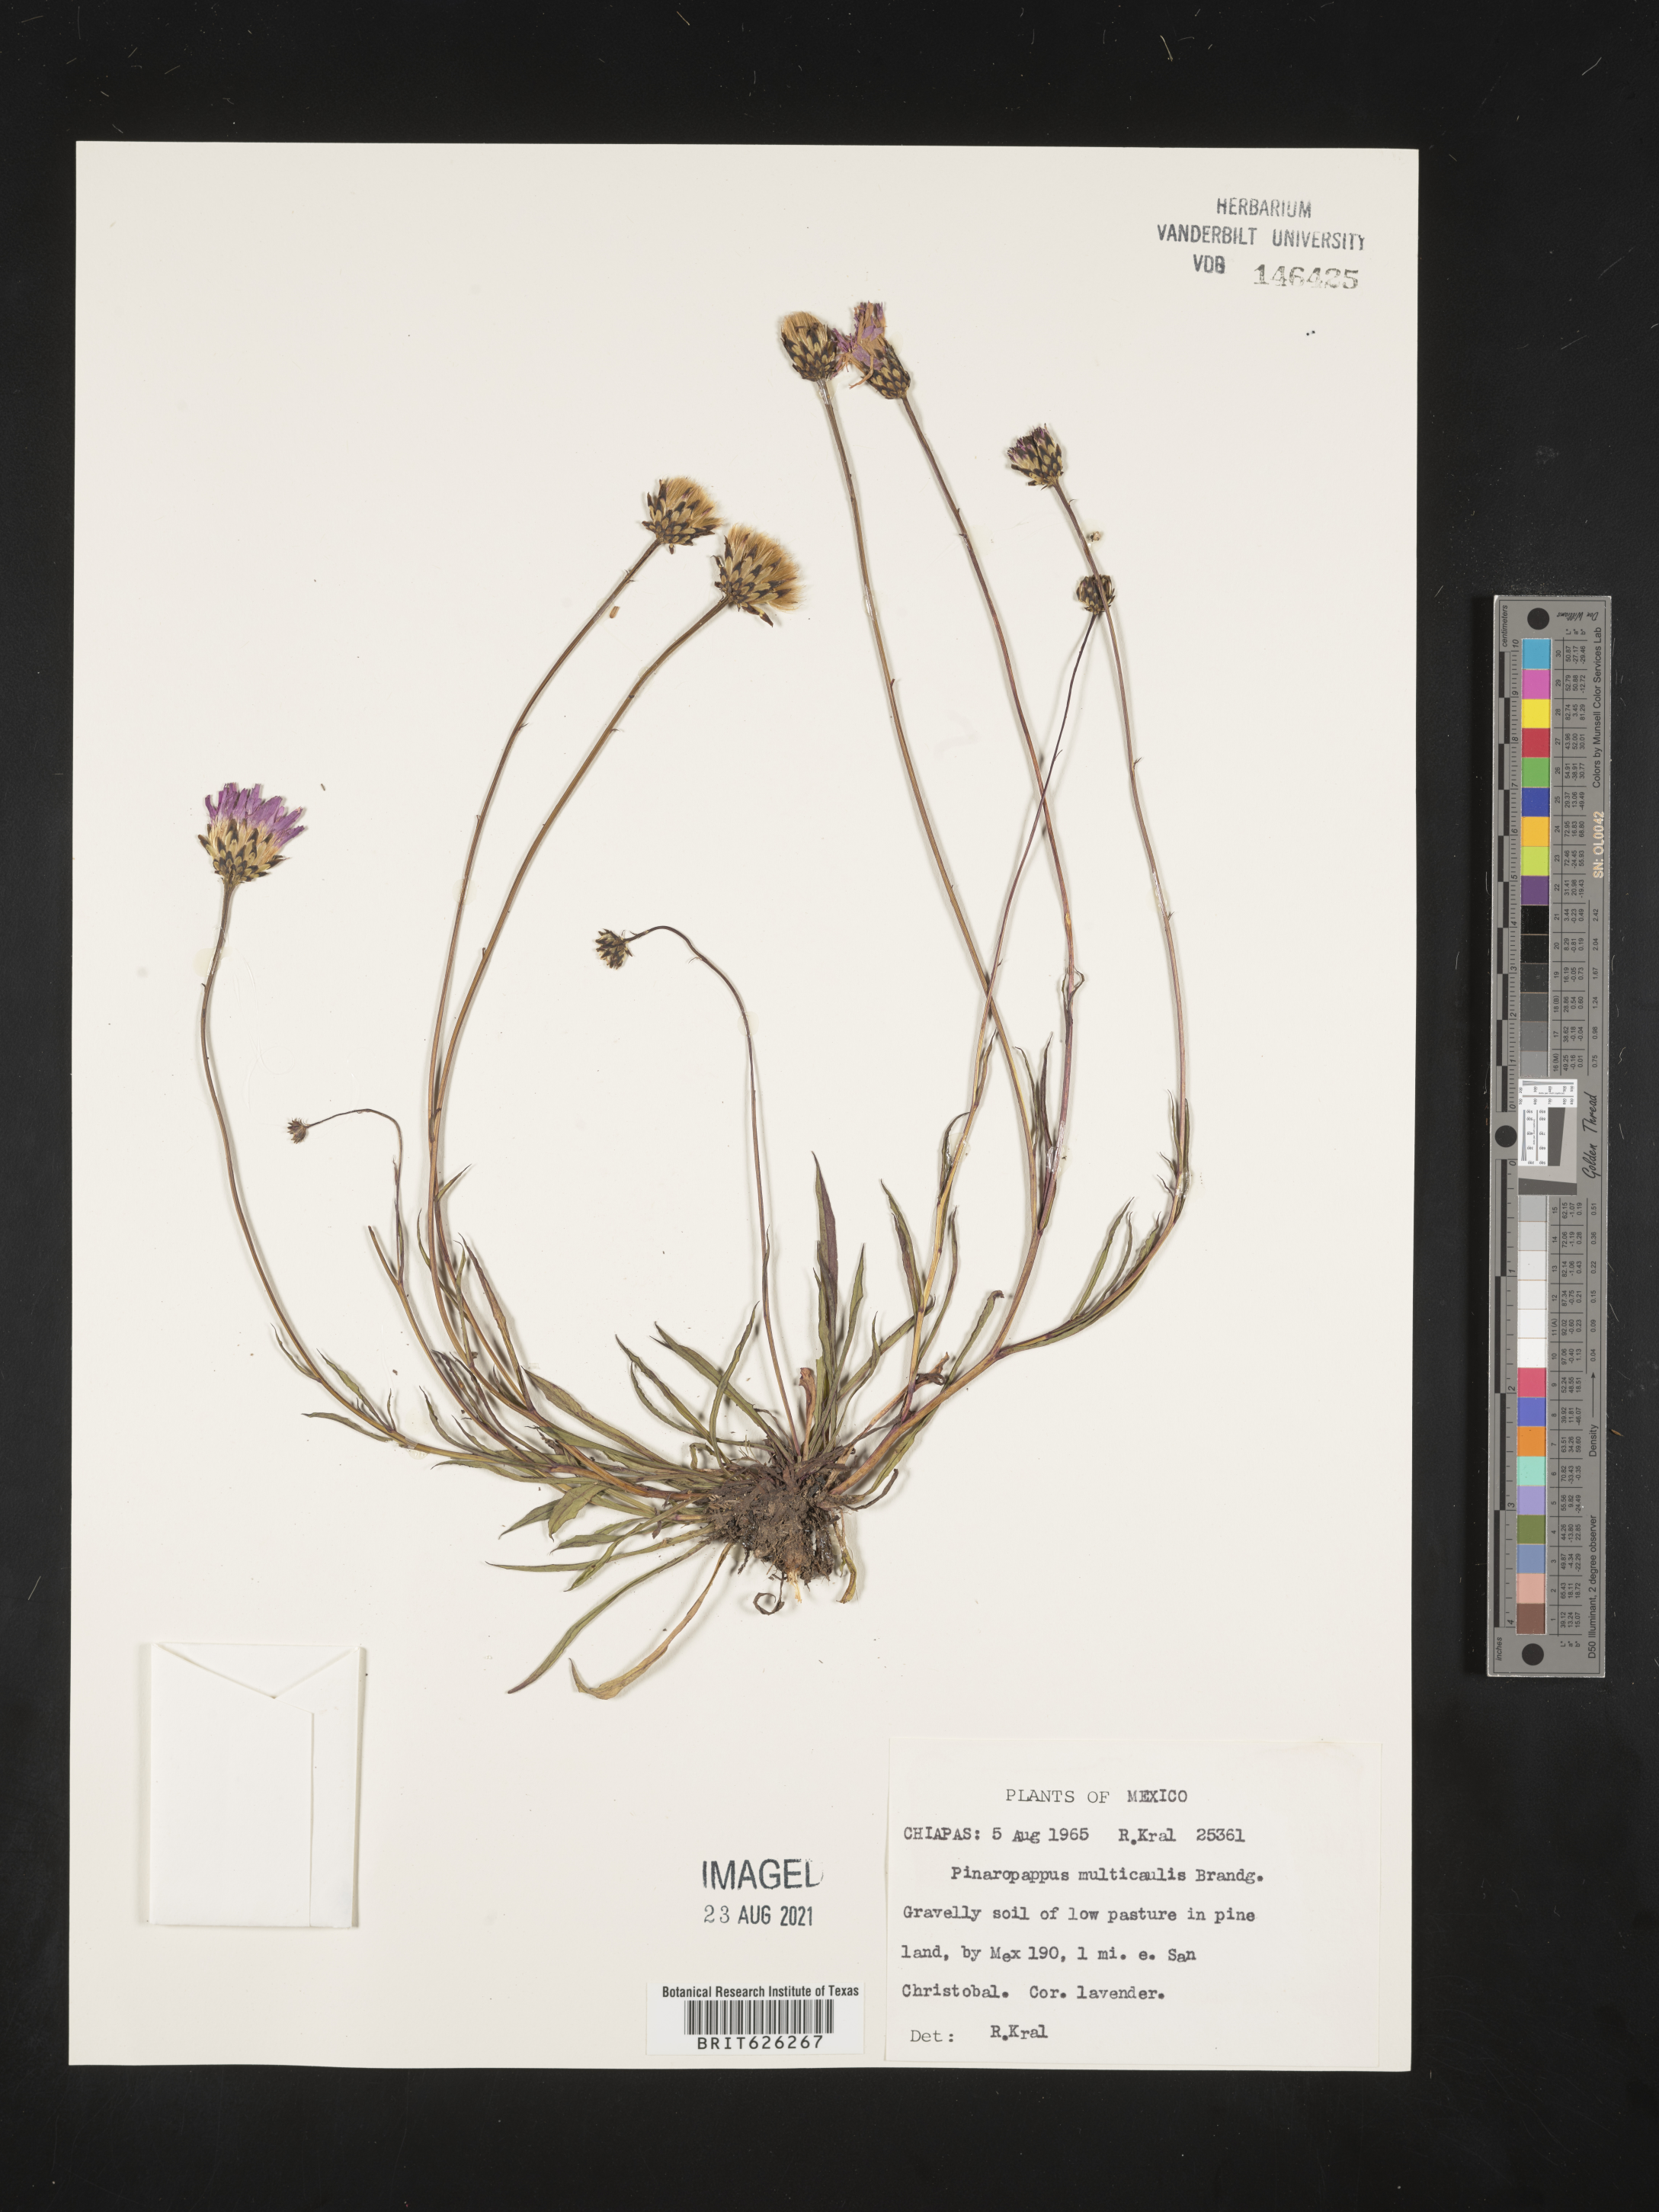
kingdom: Plantae
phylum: Tracheophyta
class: Magnoliopsida
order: Asterales
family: Asteraceae
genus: Pinaropappus
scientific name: Pinaropappus
